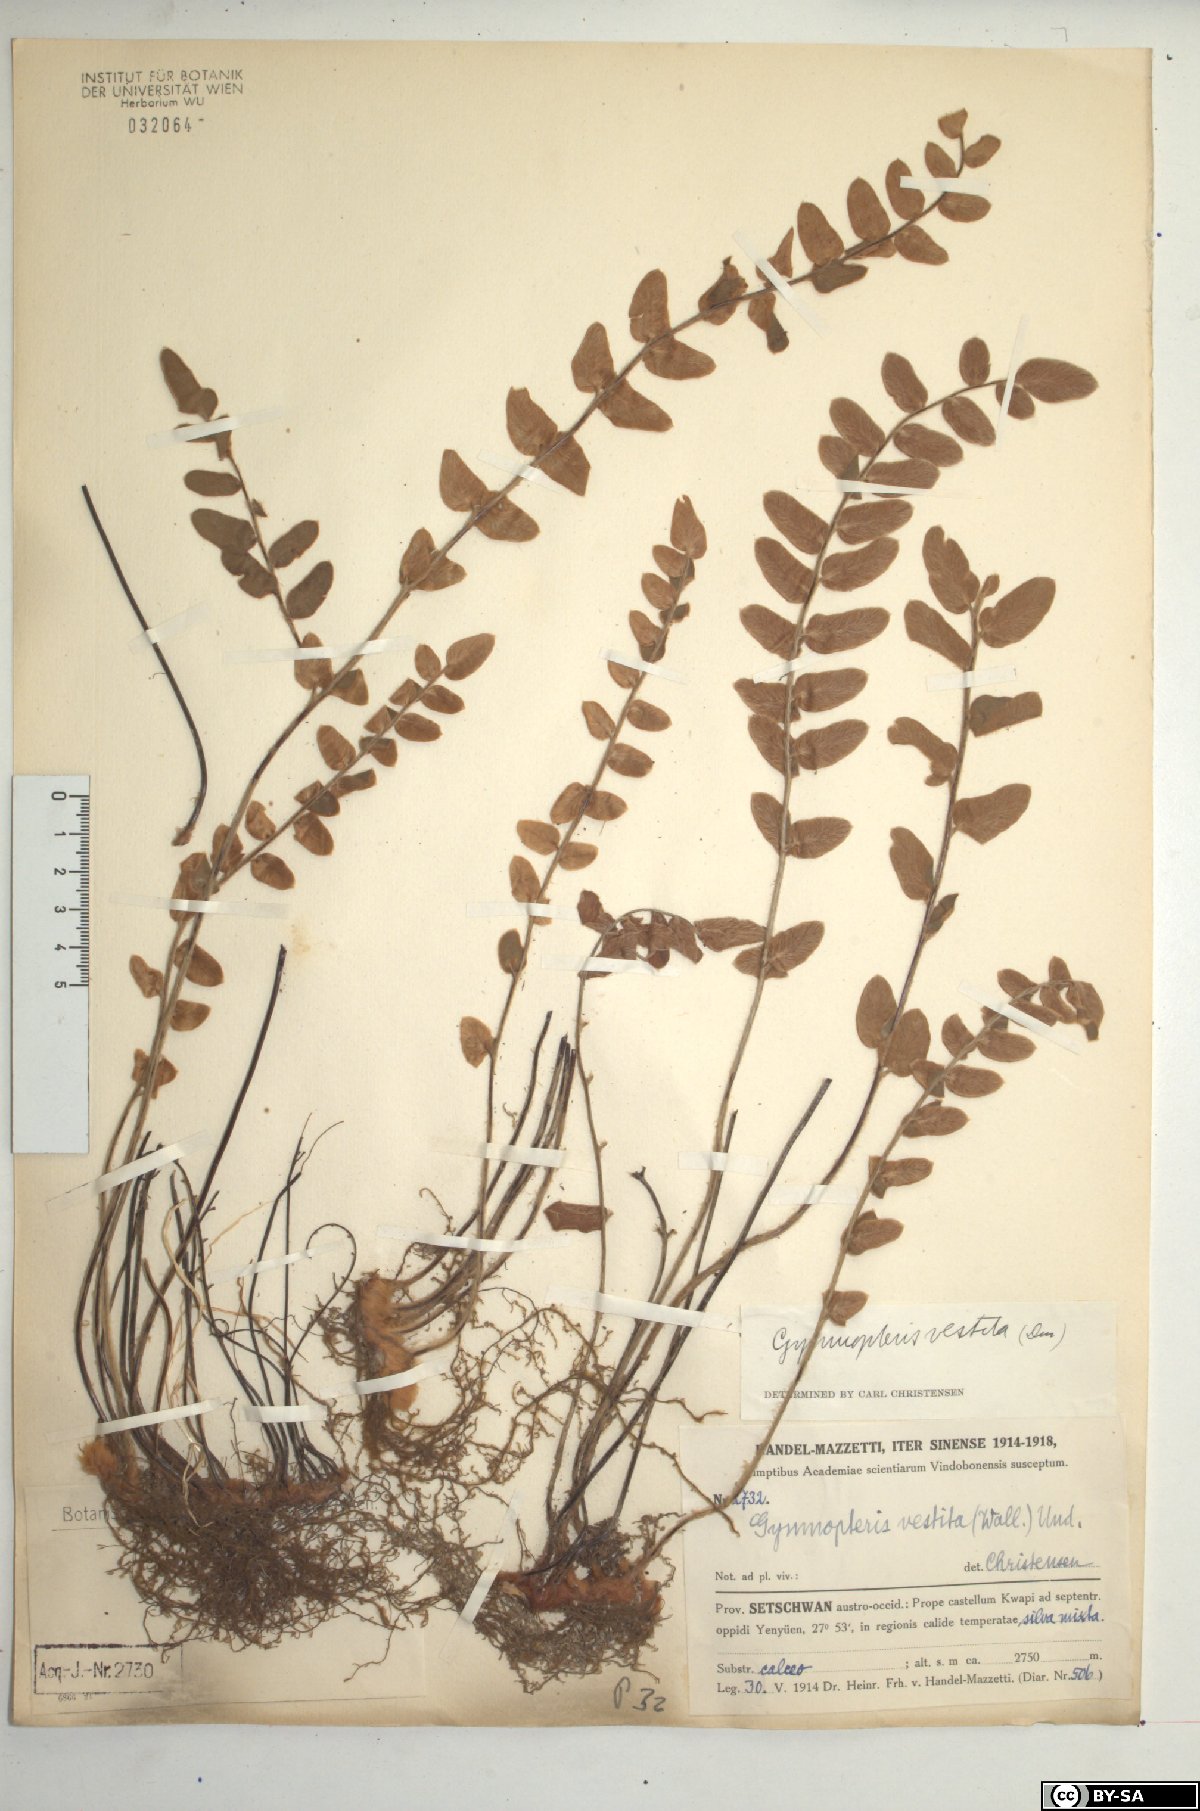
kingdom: Plantae
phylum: Tracheophyta
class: Polypodiopsida
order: Polypodiales
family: Pteridaceae
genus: Paragymnopteris
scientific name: Paragymnopteris vestita
